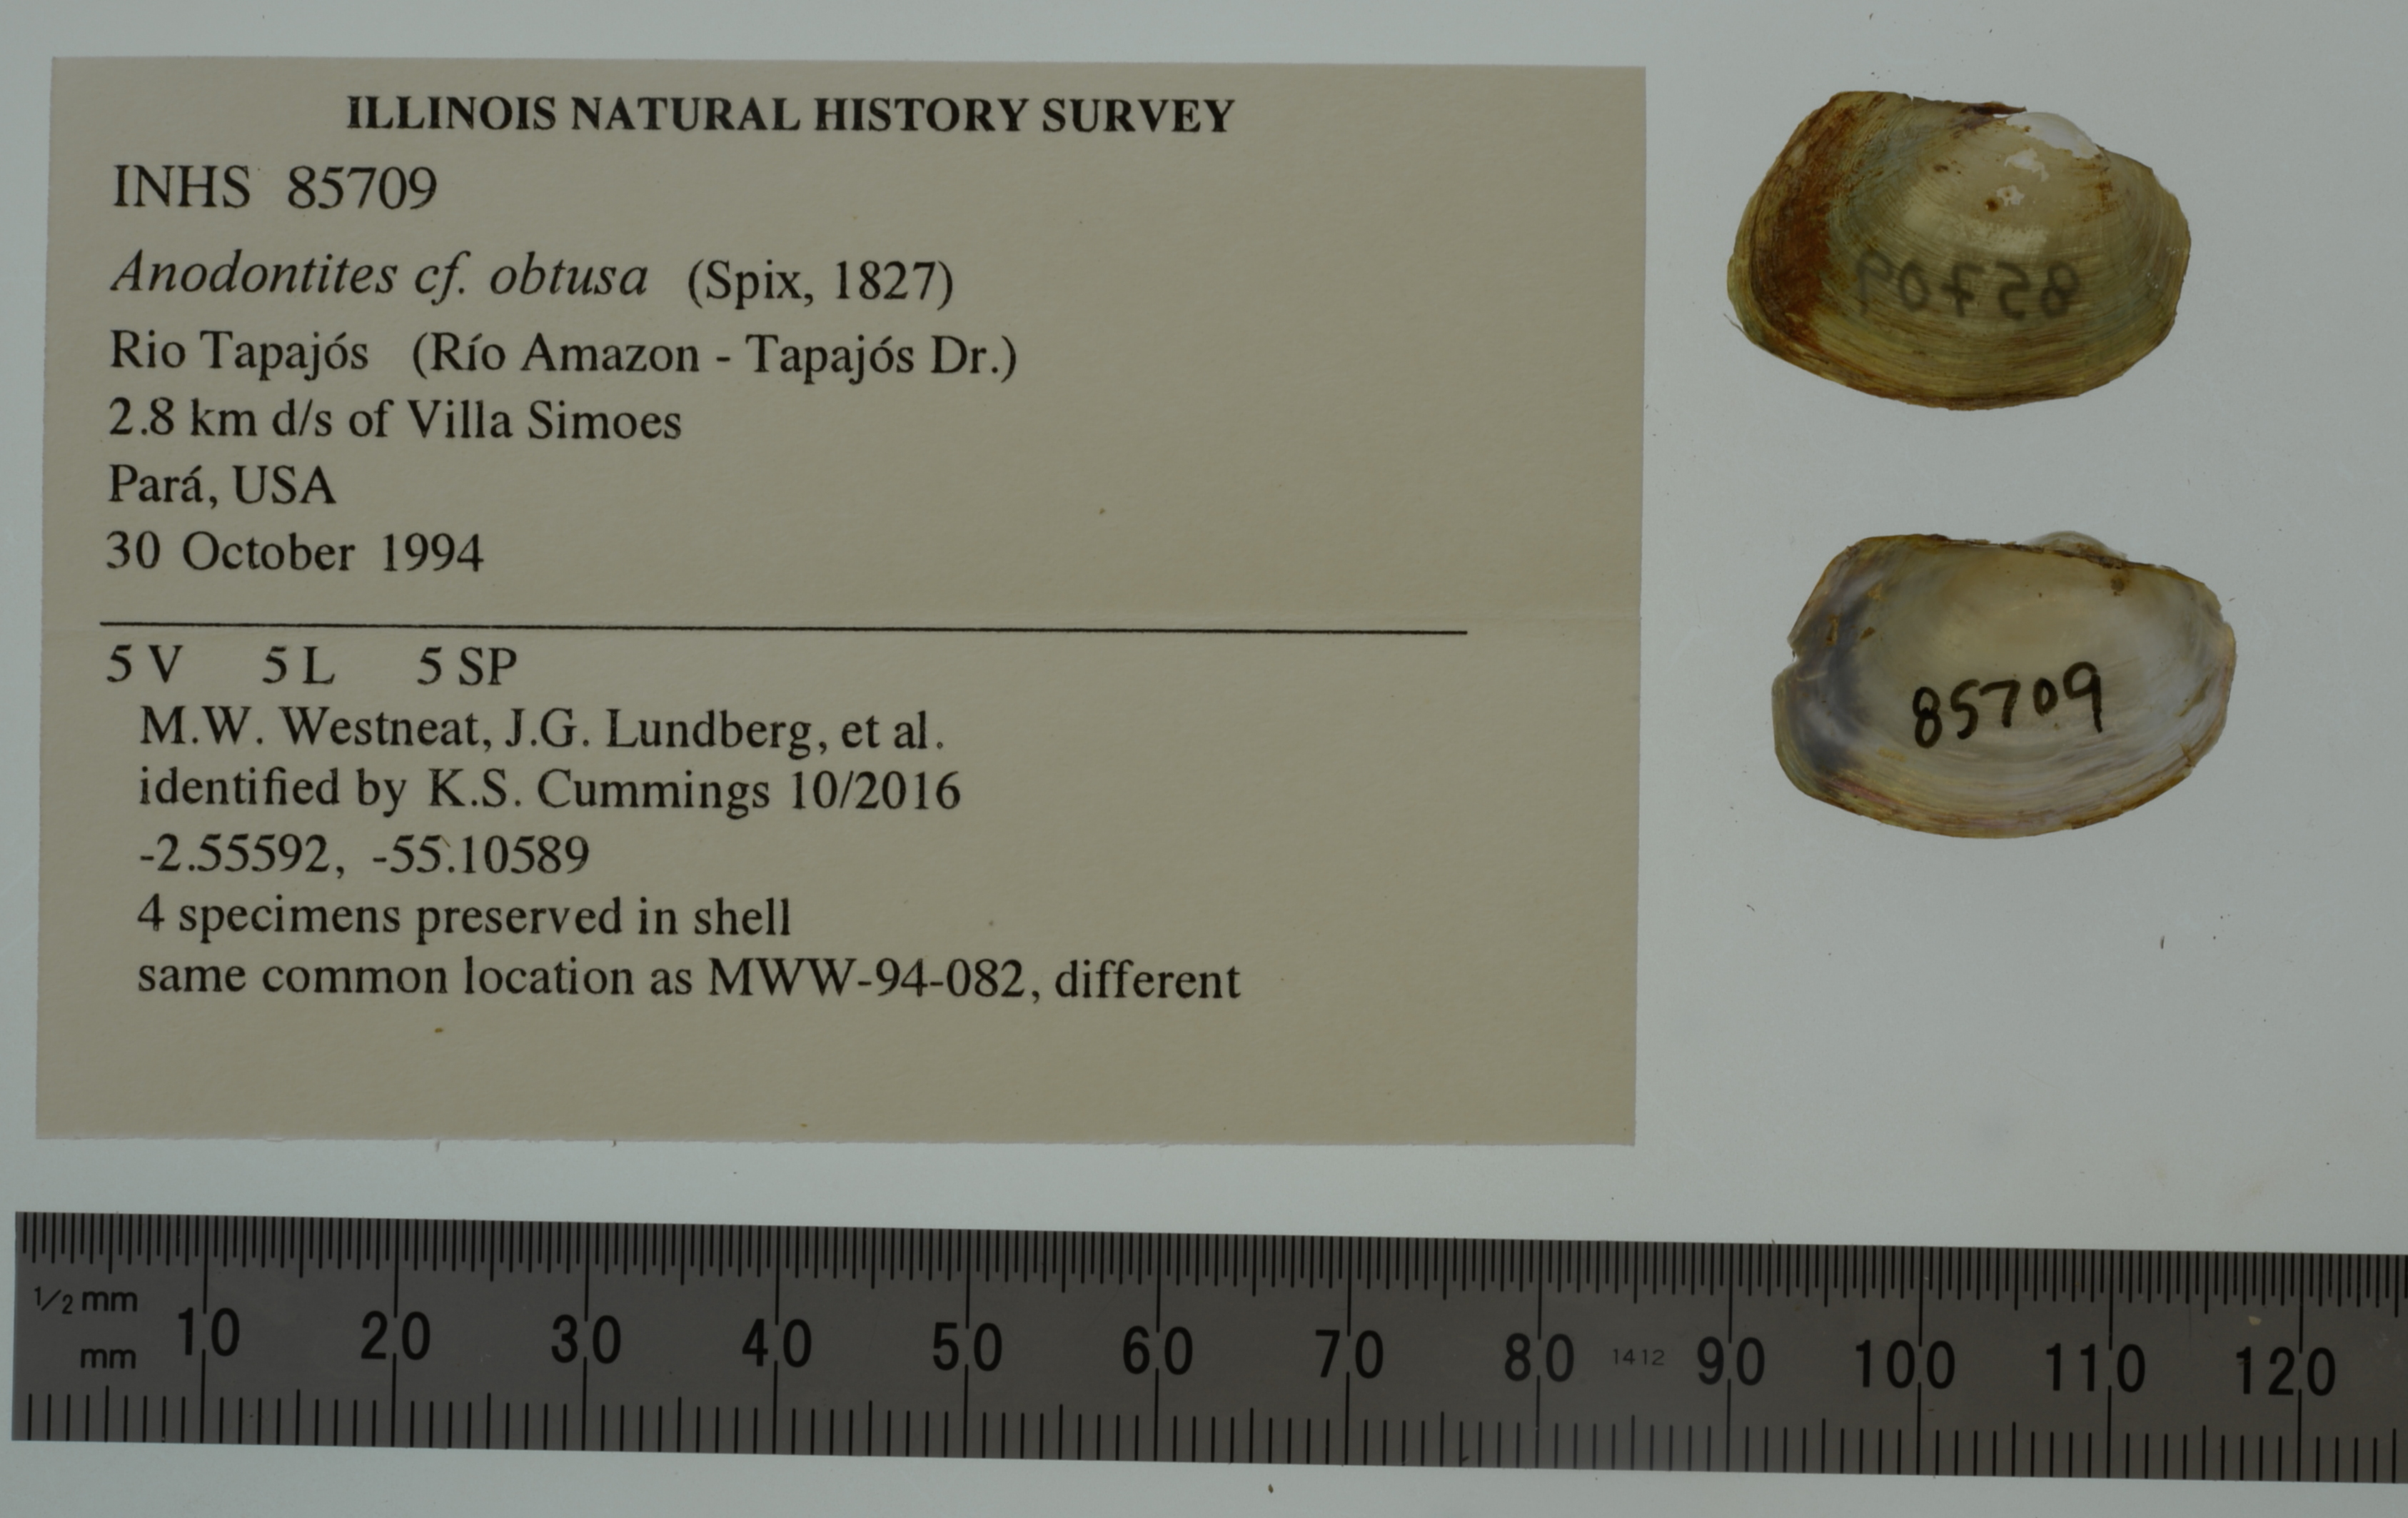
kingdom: Animalia
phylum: Mollusca
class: Bivalvia
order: Unionida
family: Mycetopodidae
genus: Anodontites
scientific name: Anodontites
